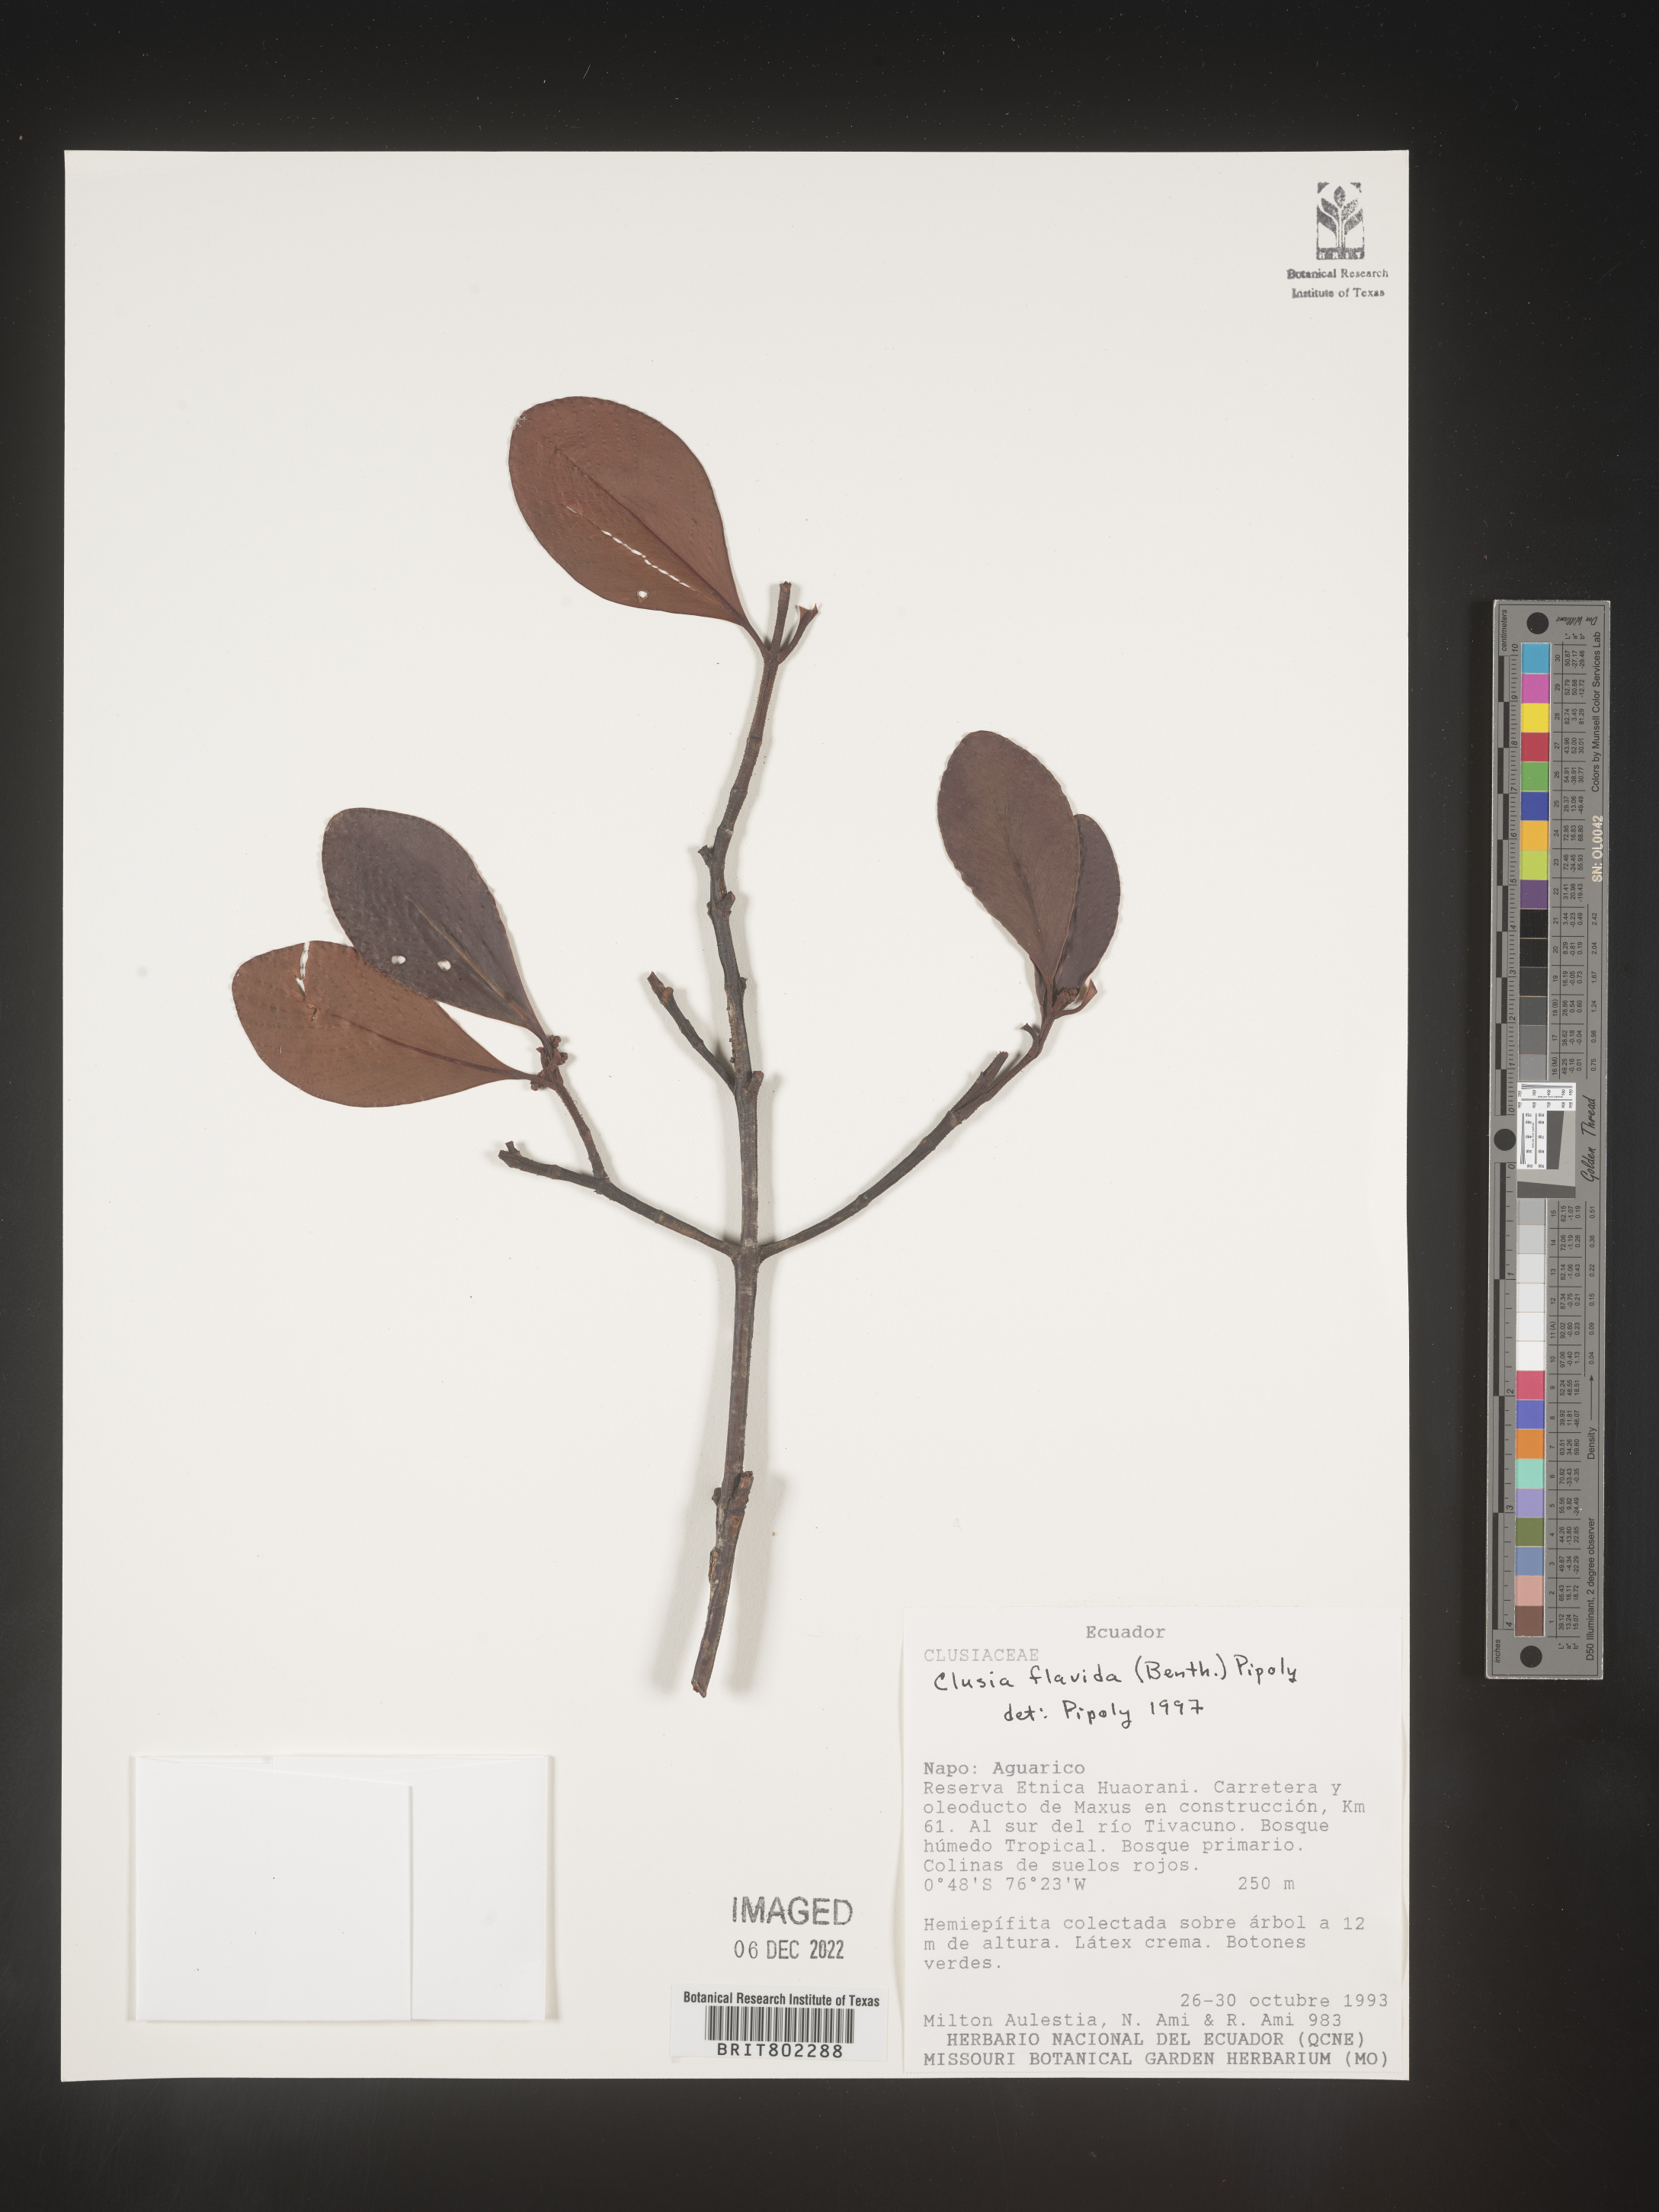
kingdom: Plantae
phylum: Tracheophyta
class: Magnoliopsida
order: Malpighiales
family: Clusiaceae
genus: Clusia
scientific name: Clusia flavida
